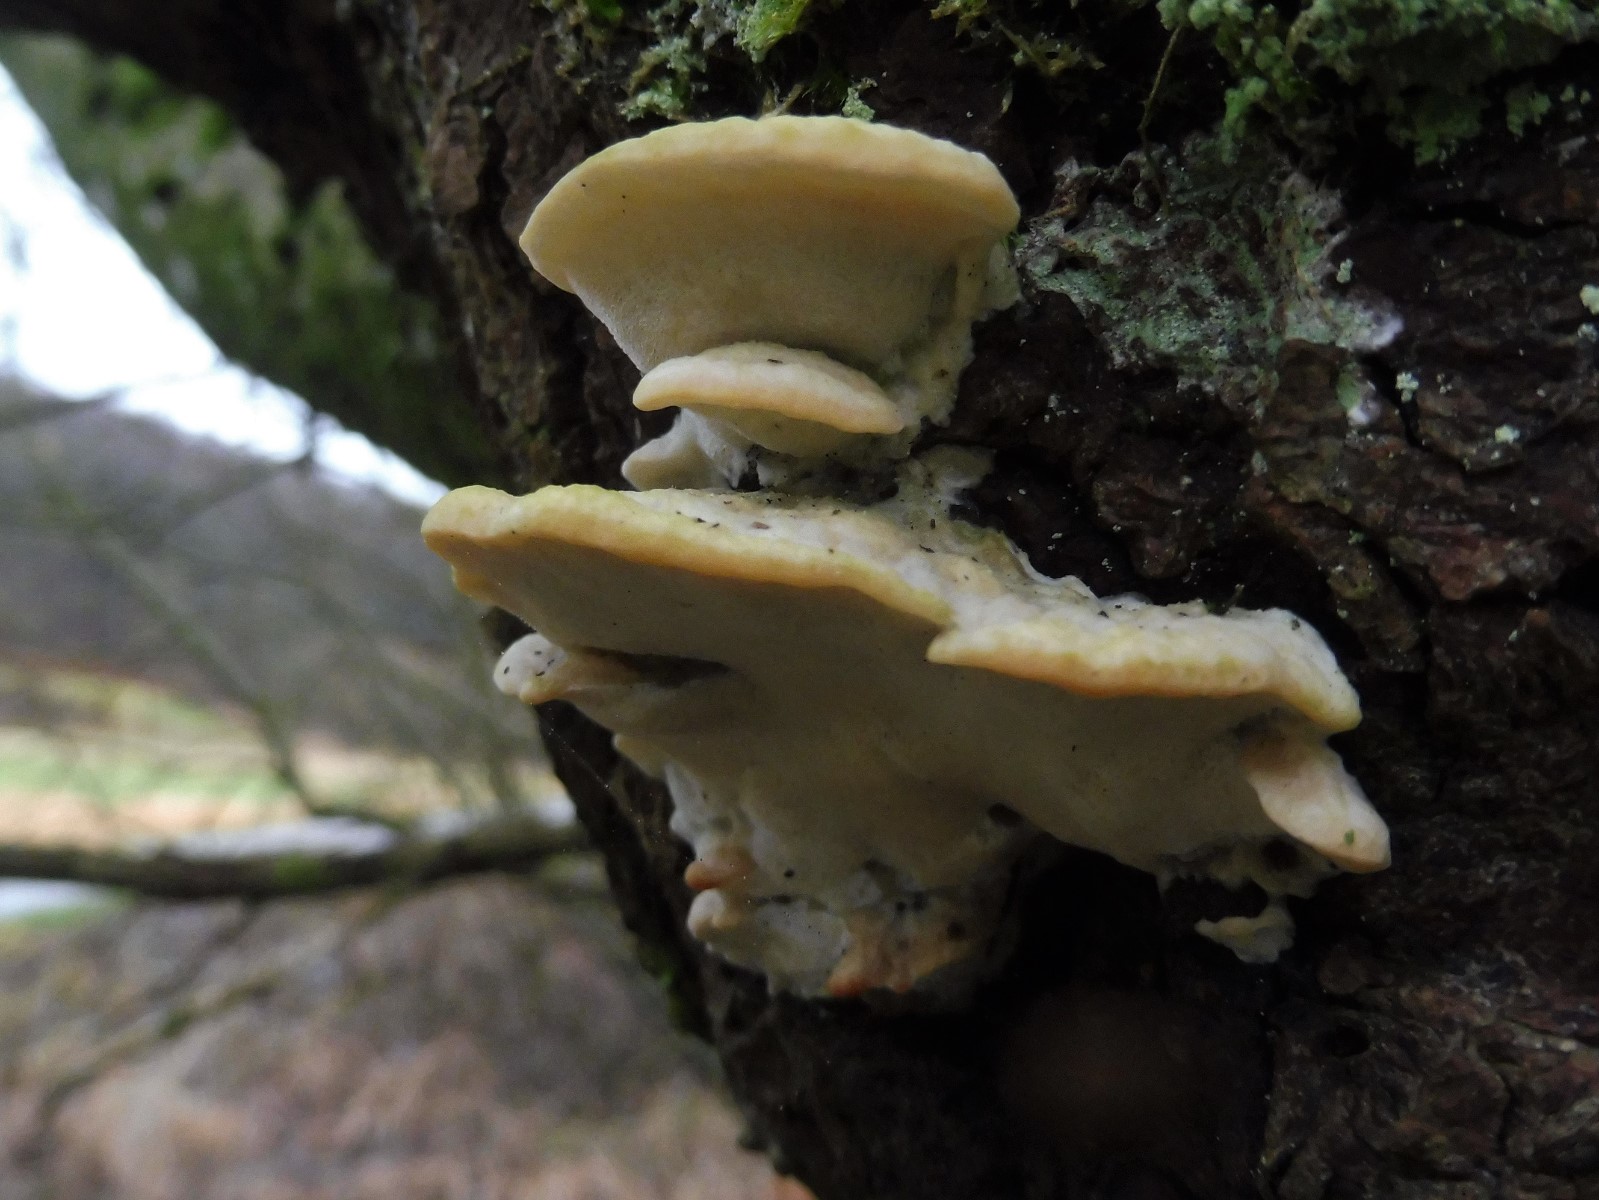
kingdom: Fungi
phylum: Basidiomycota
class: Agaricomycetes
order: Polyporales
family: Phanerochaetaceae
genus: Bjerkandera
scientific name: Bjerkandera fumosa
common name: grågul sodporesvamp
